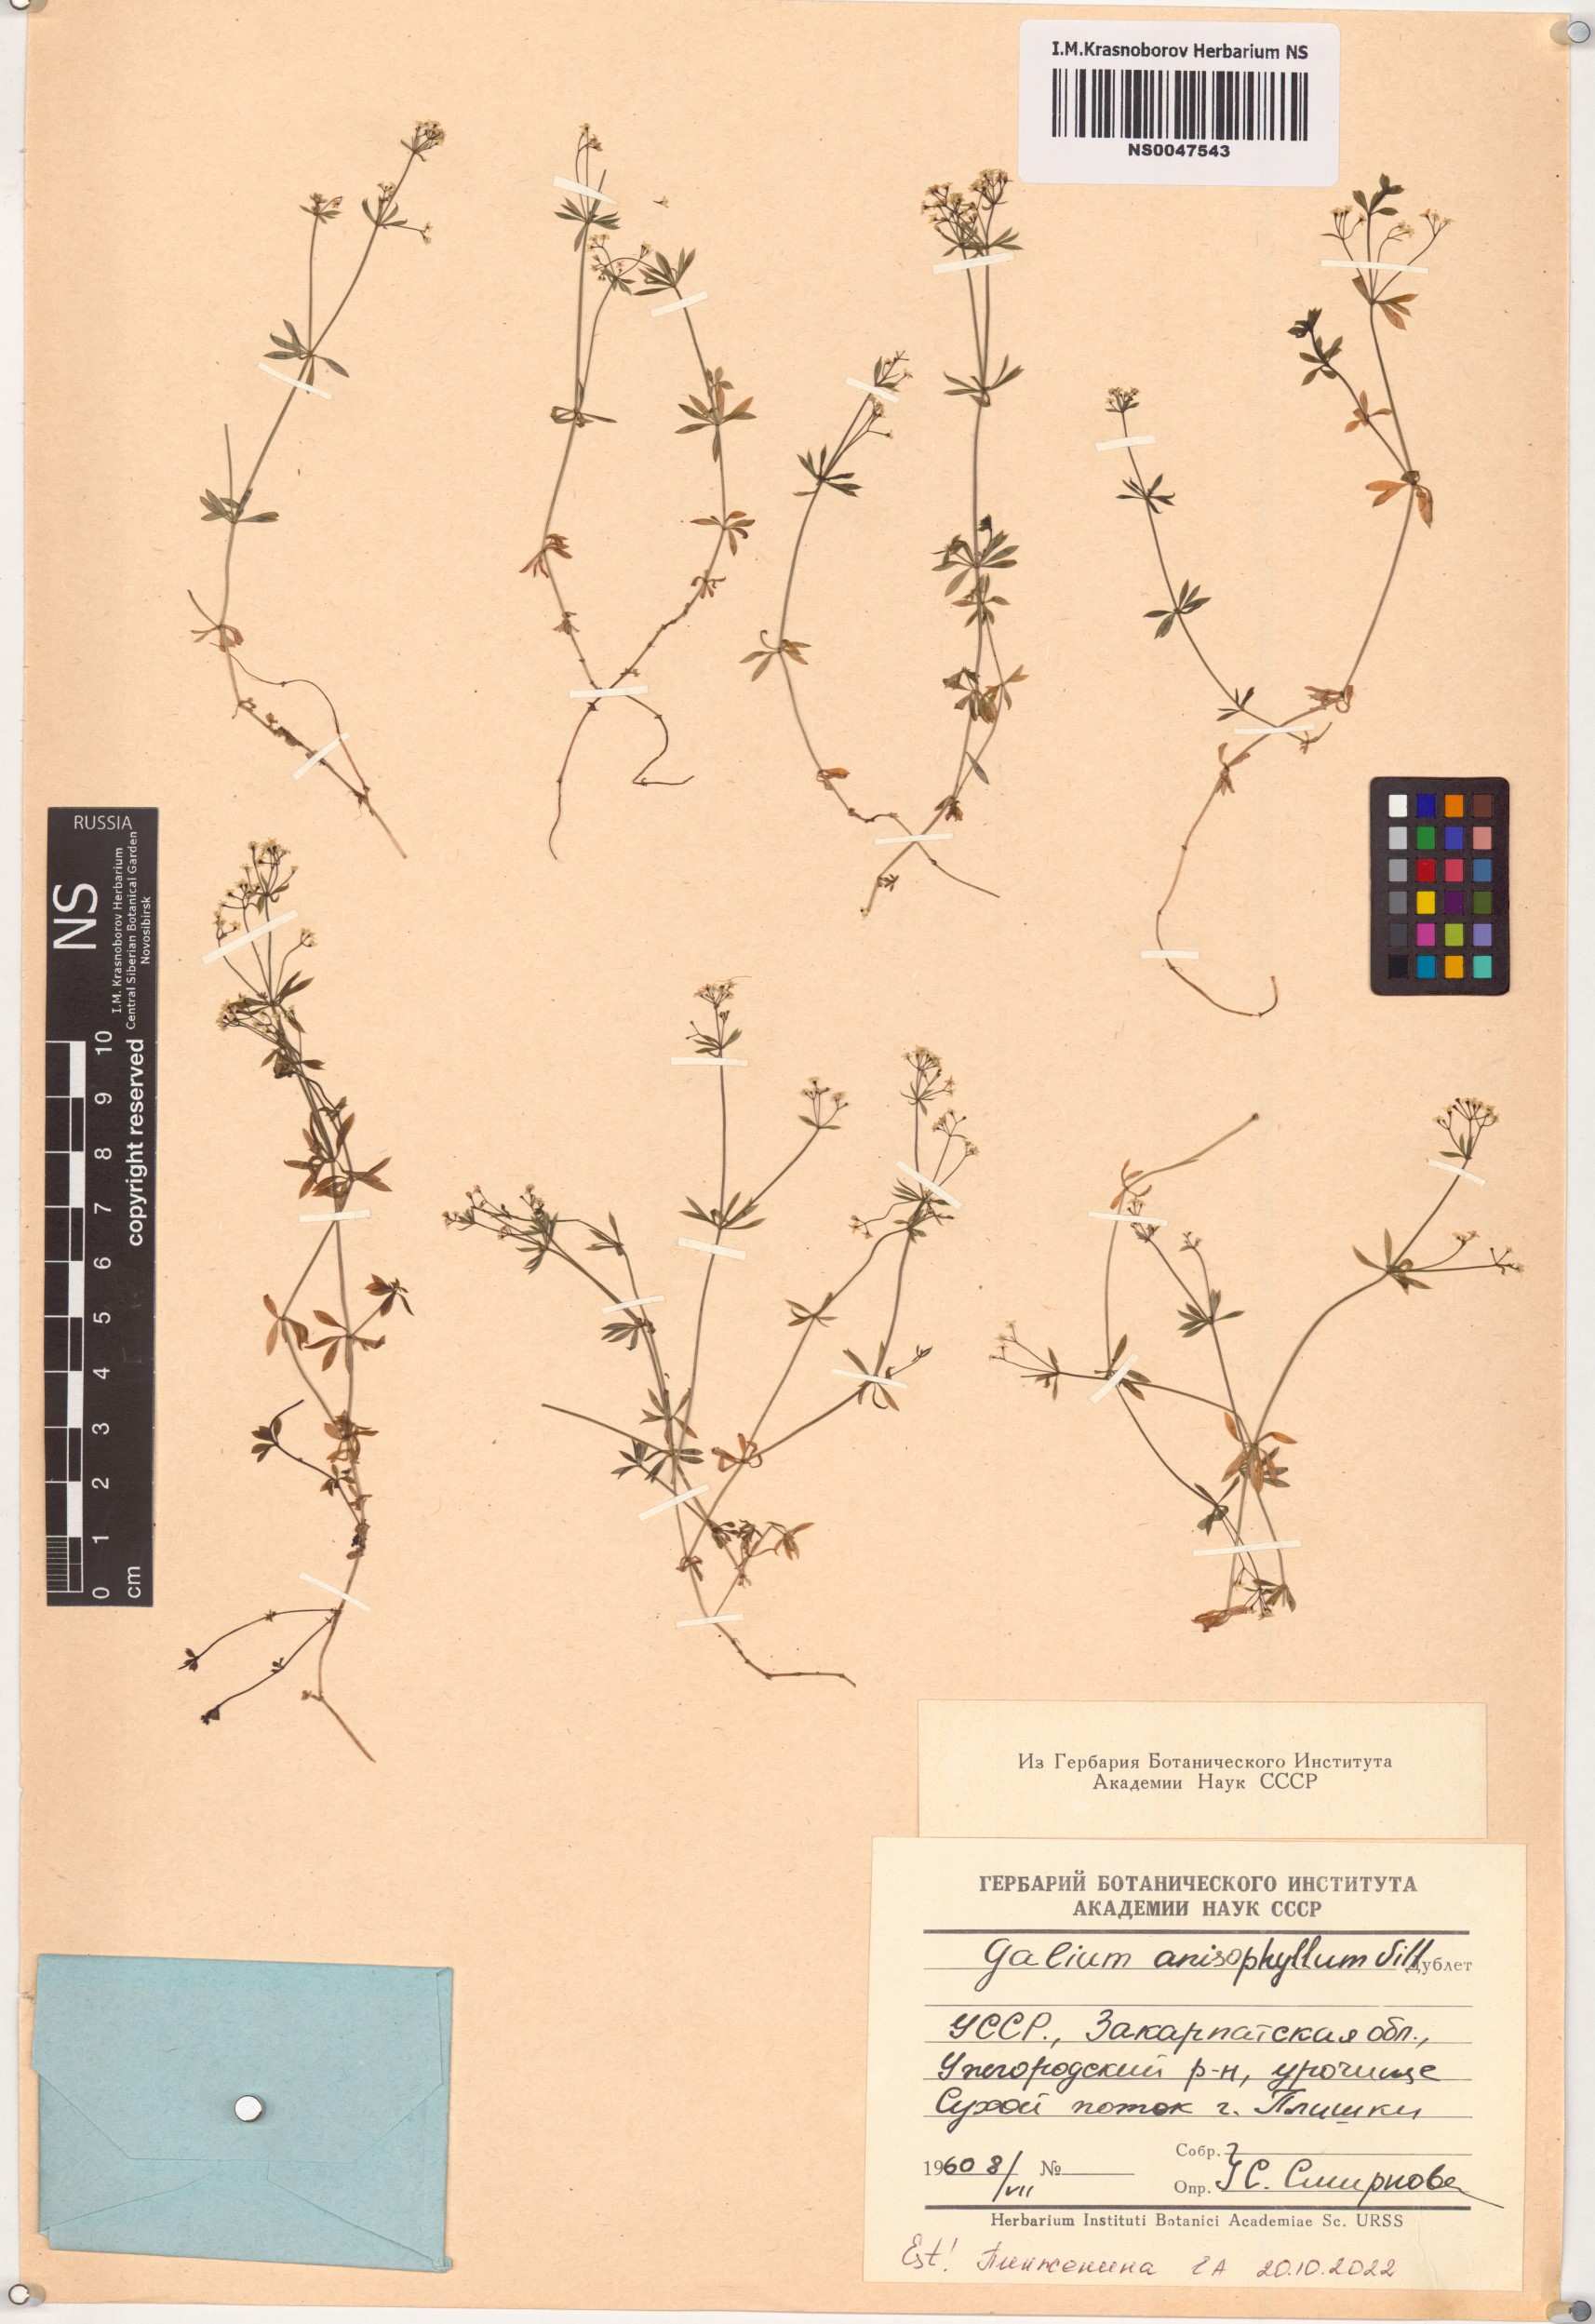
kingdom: Plantae
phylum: Tracheophyta
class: Magnoliopsida
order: Gentianales
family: Rubiaceae
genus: Galium
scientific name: Galium anisophyllon
